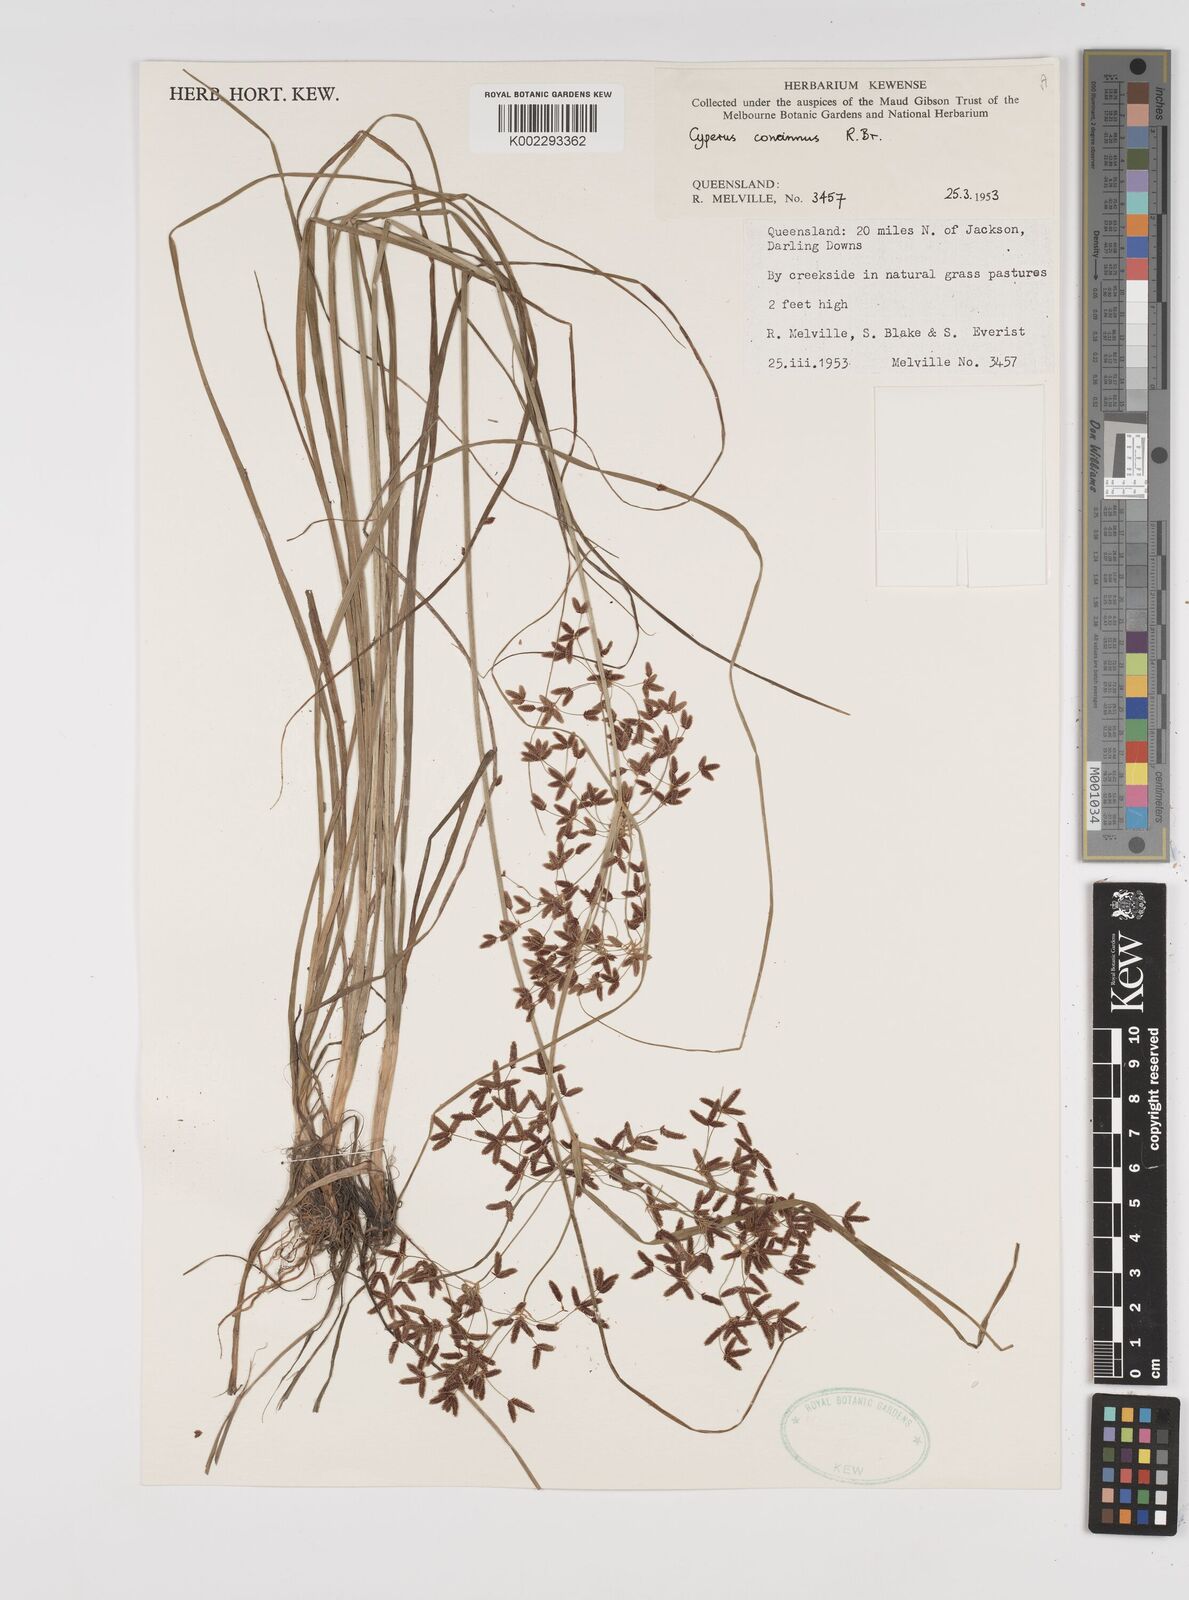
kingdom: Plantae
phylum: Tracheophyta
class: Liliopsida
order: Poales
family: Cyperaceae
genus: Cyperus
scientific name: Cyperus concinnus
